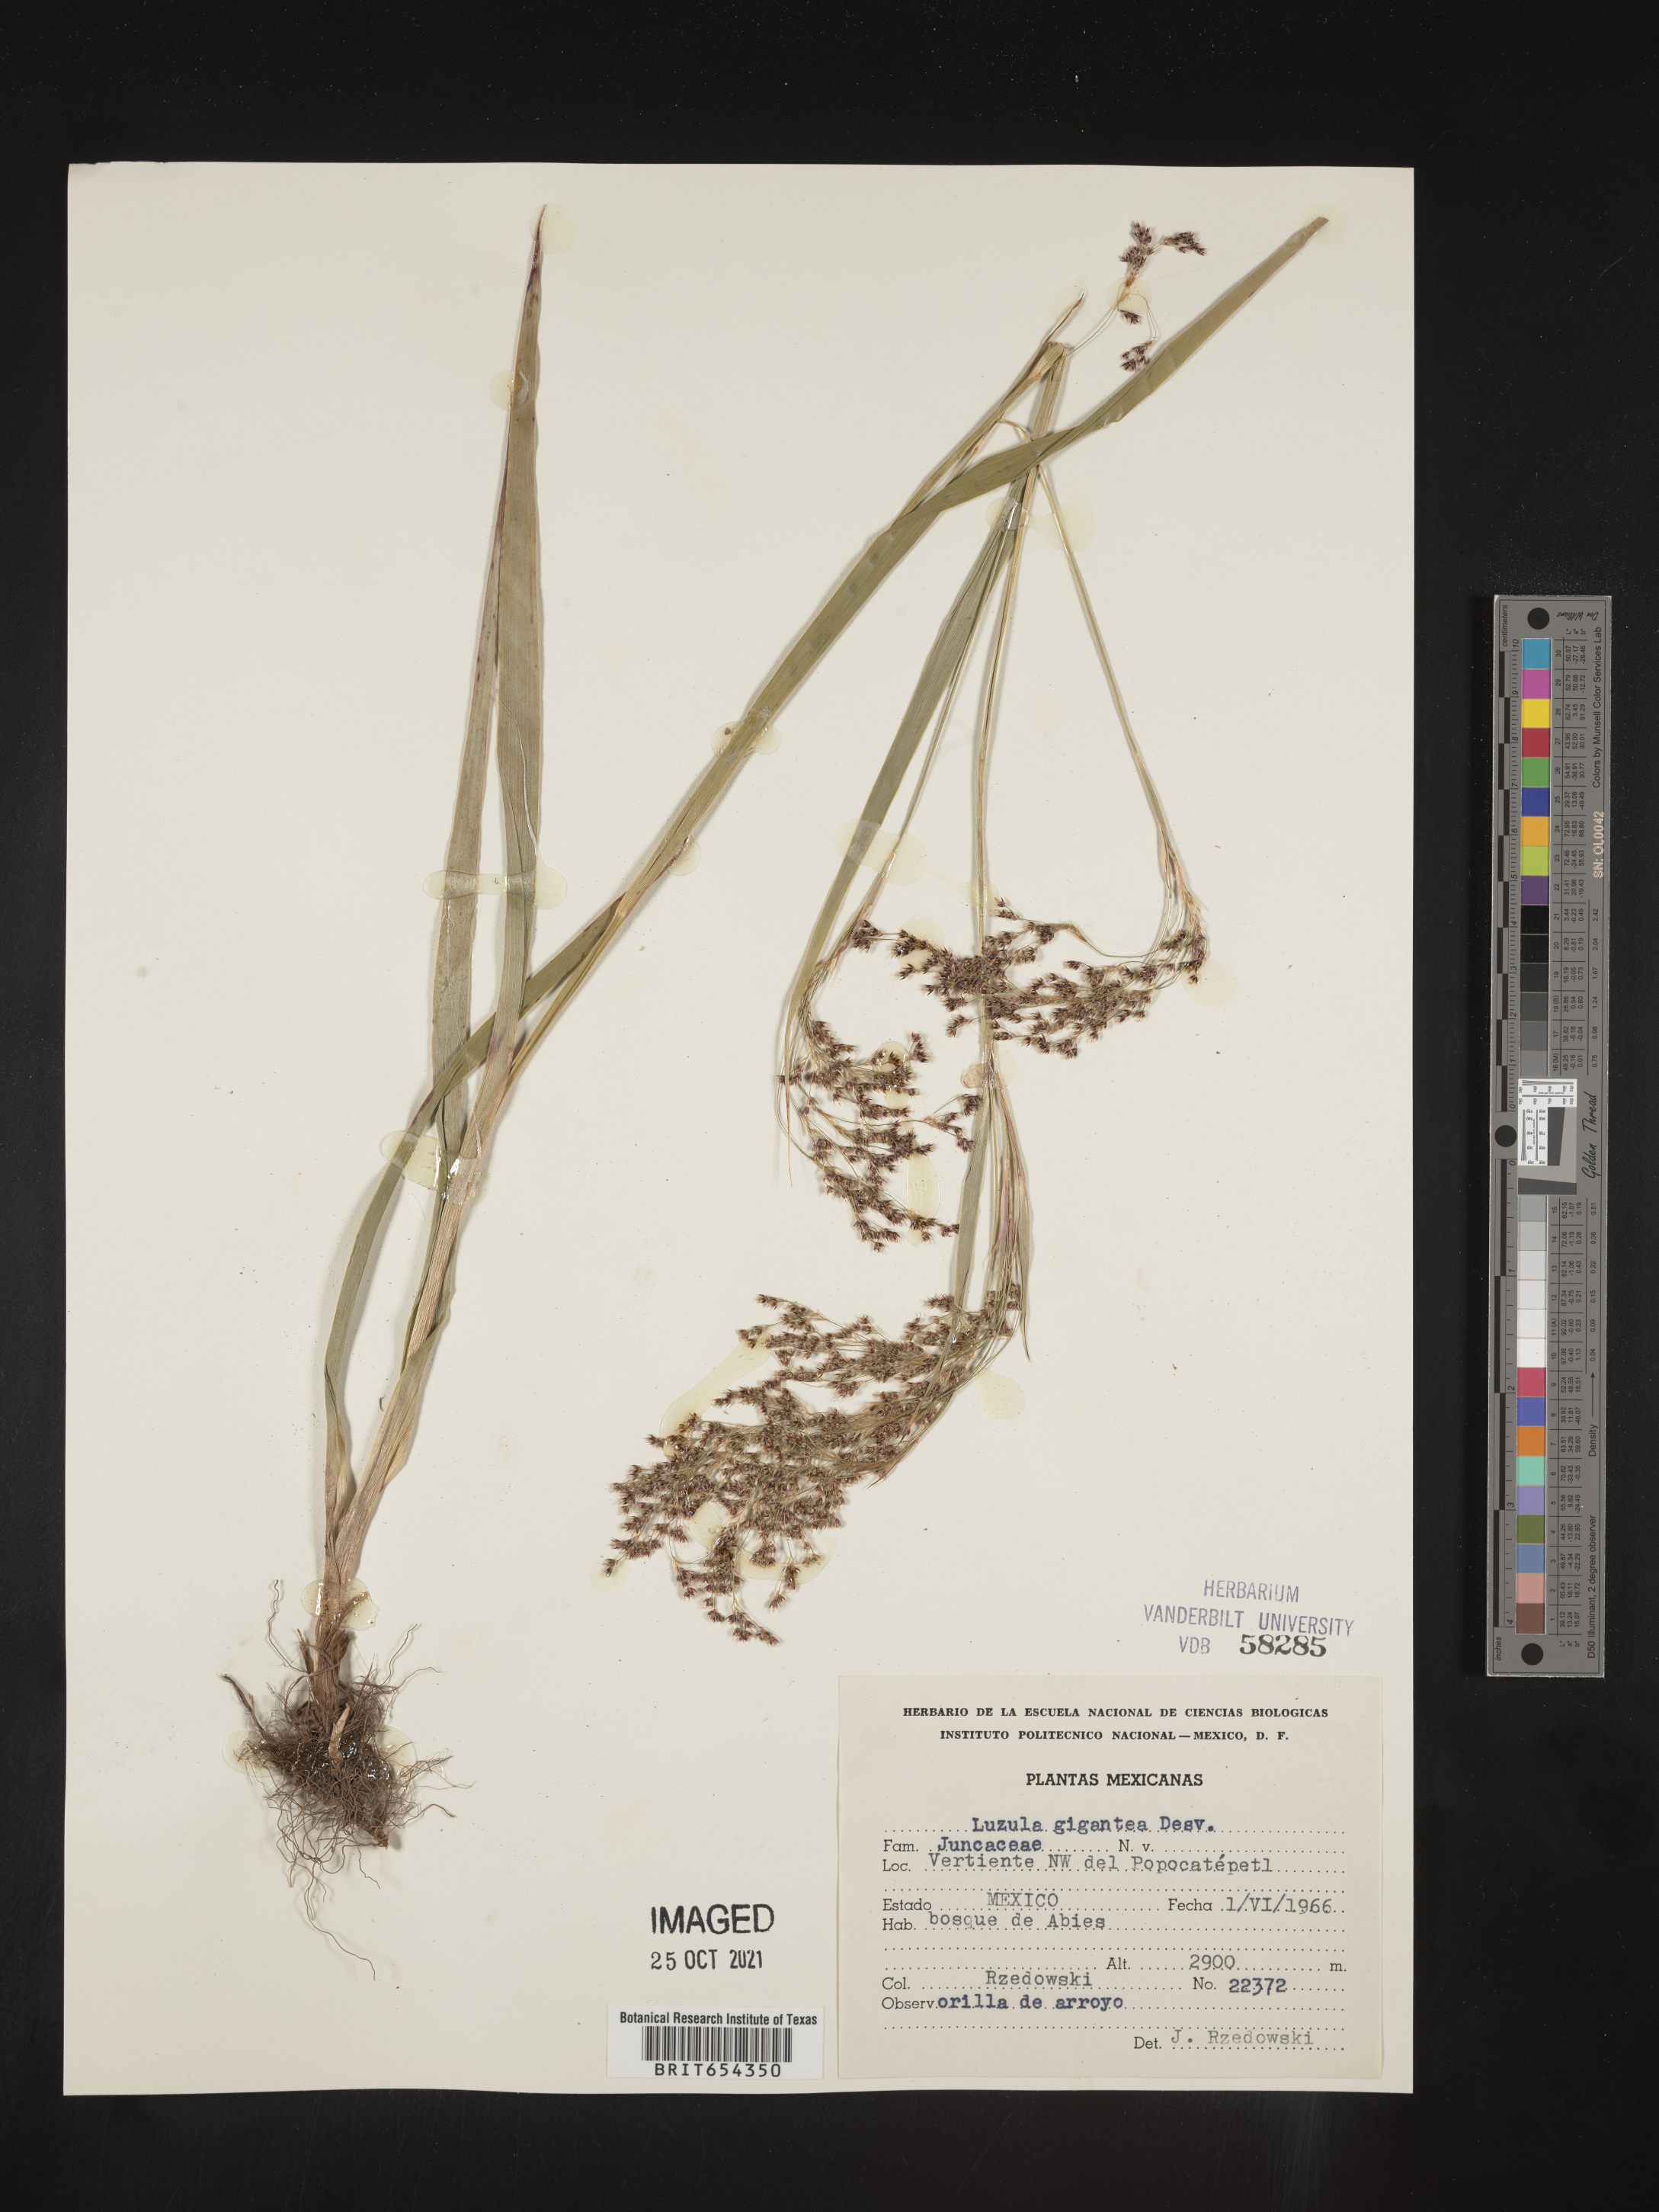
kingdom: Plantae
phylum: Tracheophyta
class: Liliopsida
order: Poales
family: Juncaceae
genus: Luzula
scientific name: Luzula
